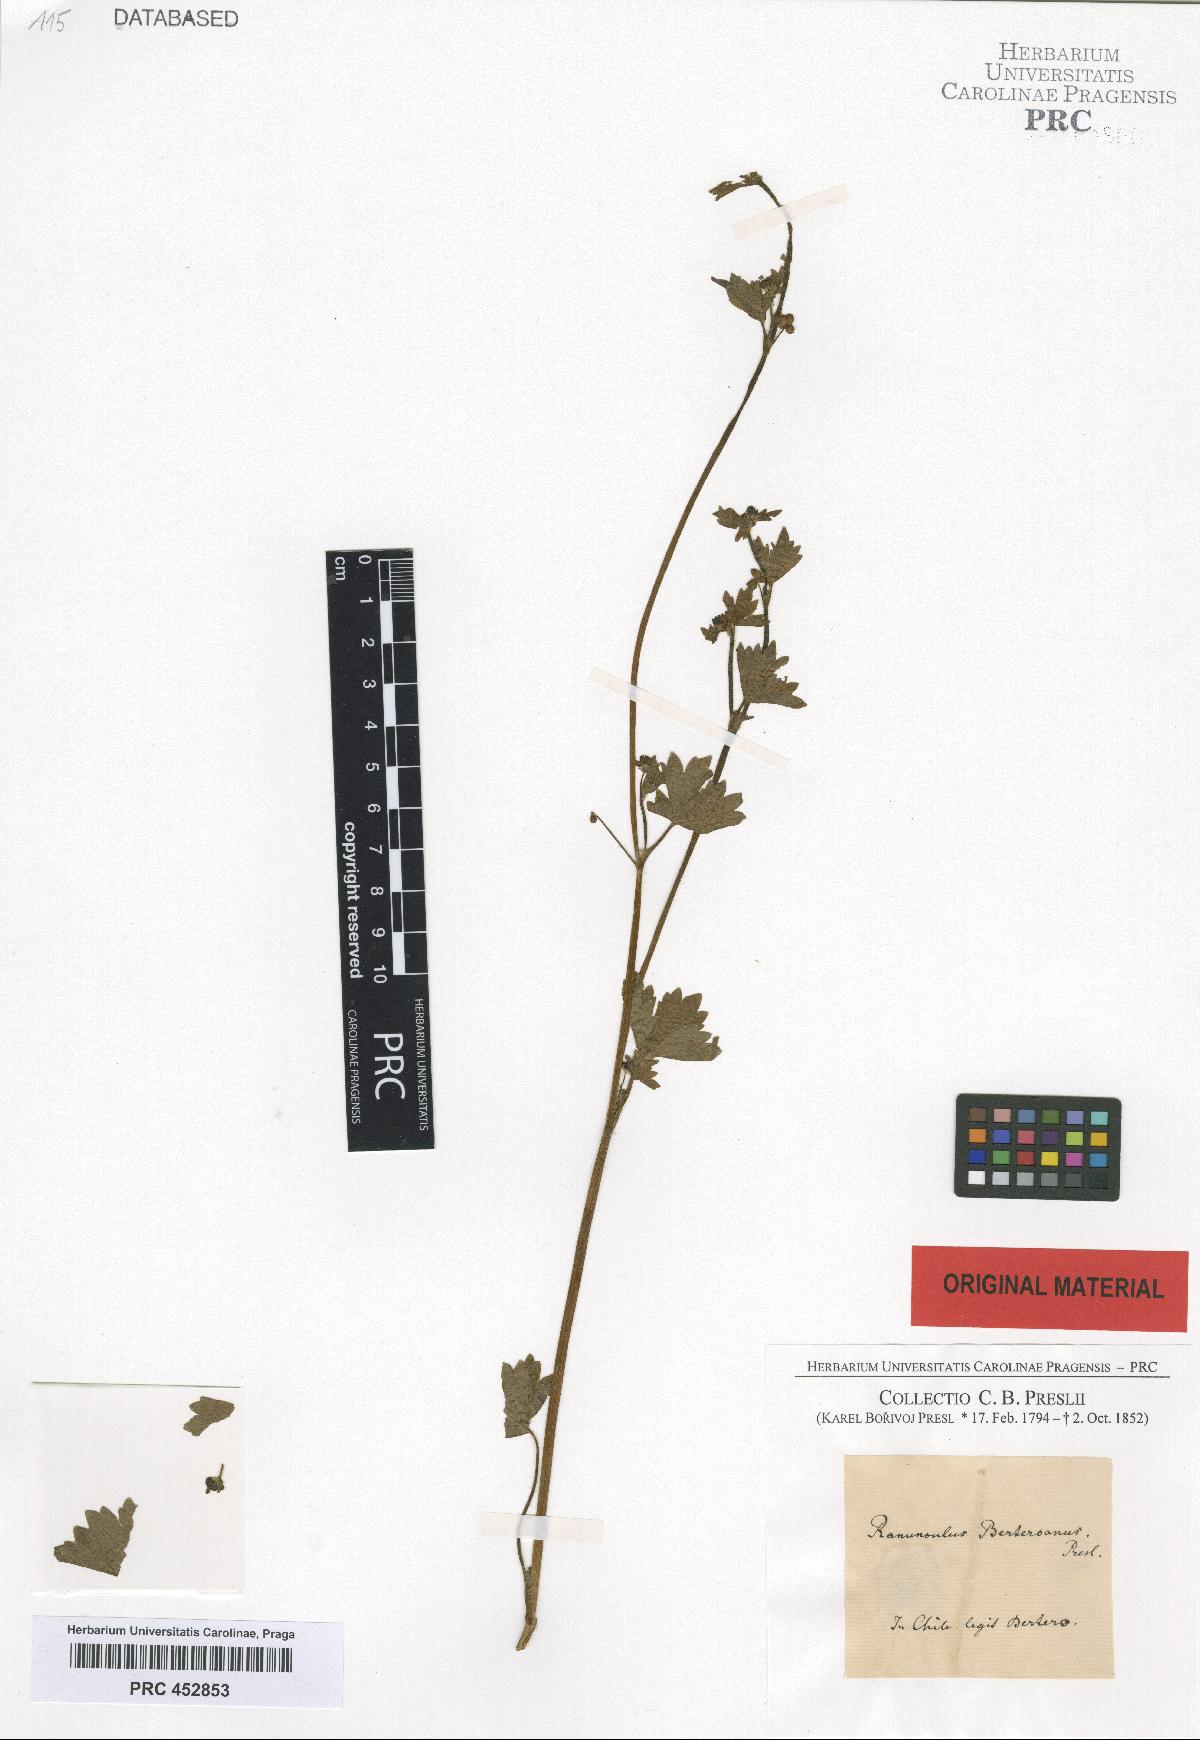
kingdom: Plantae
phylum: Tracheophyta
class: Magnoliopsida
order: Ranunculales
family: Ranunculaceae
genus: Ranunculus
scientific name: Ranunculus minutiflorus
